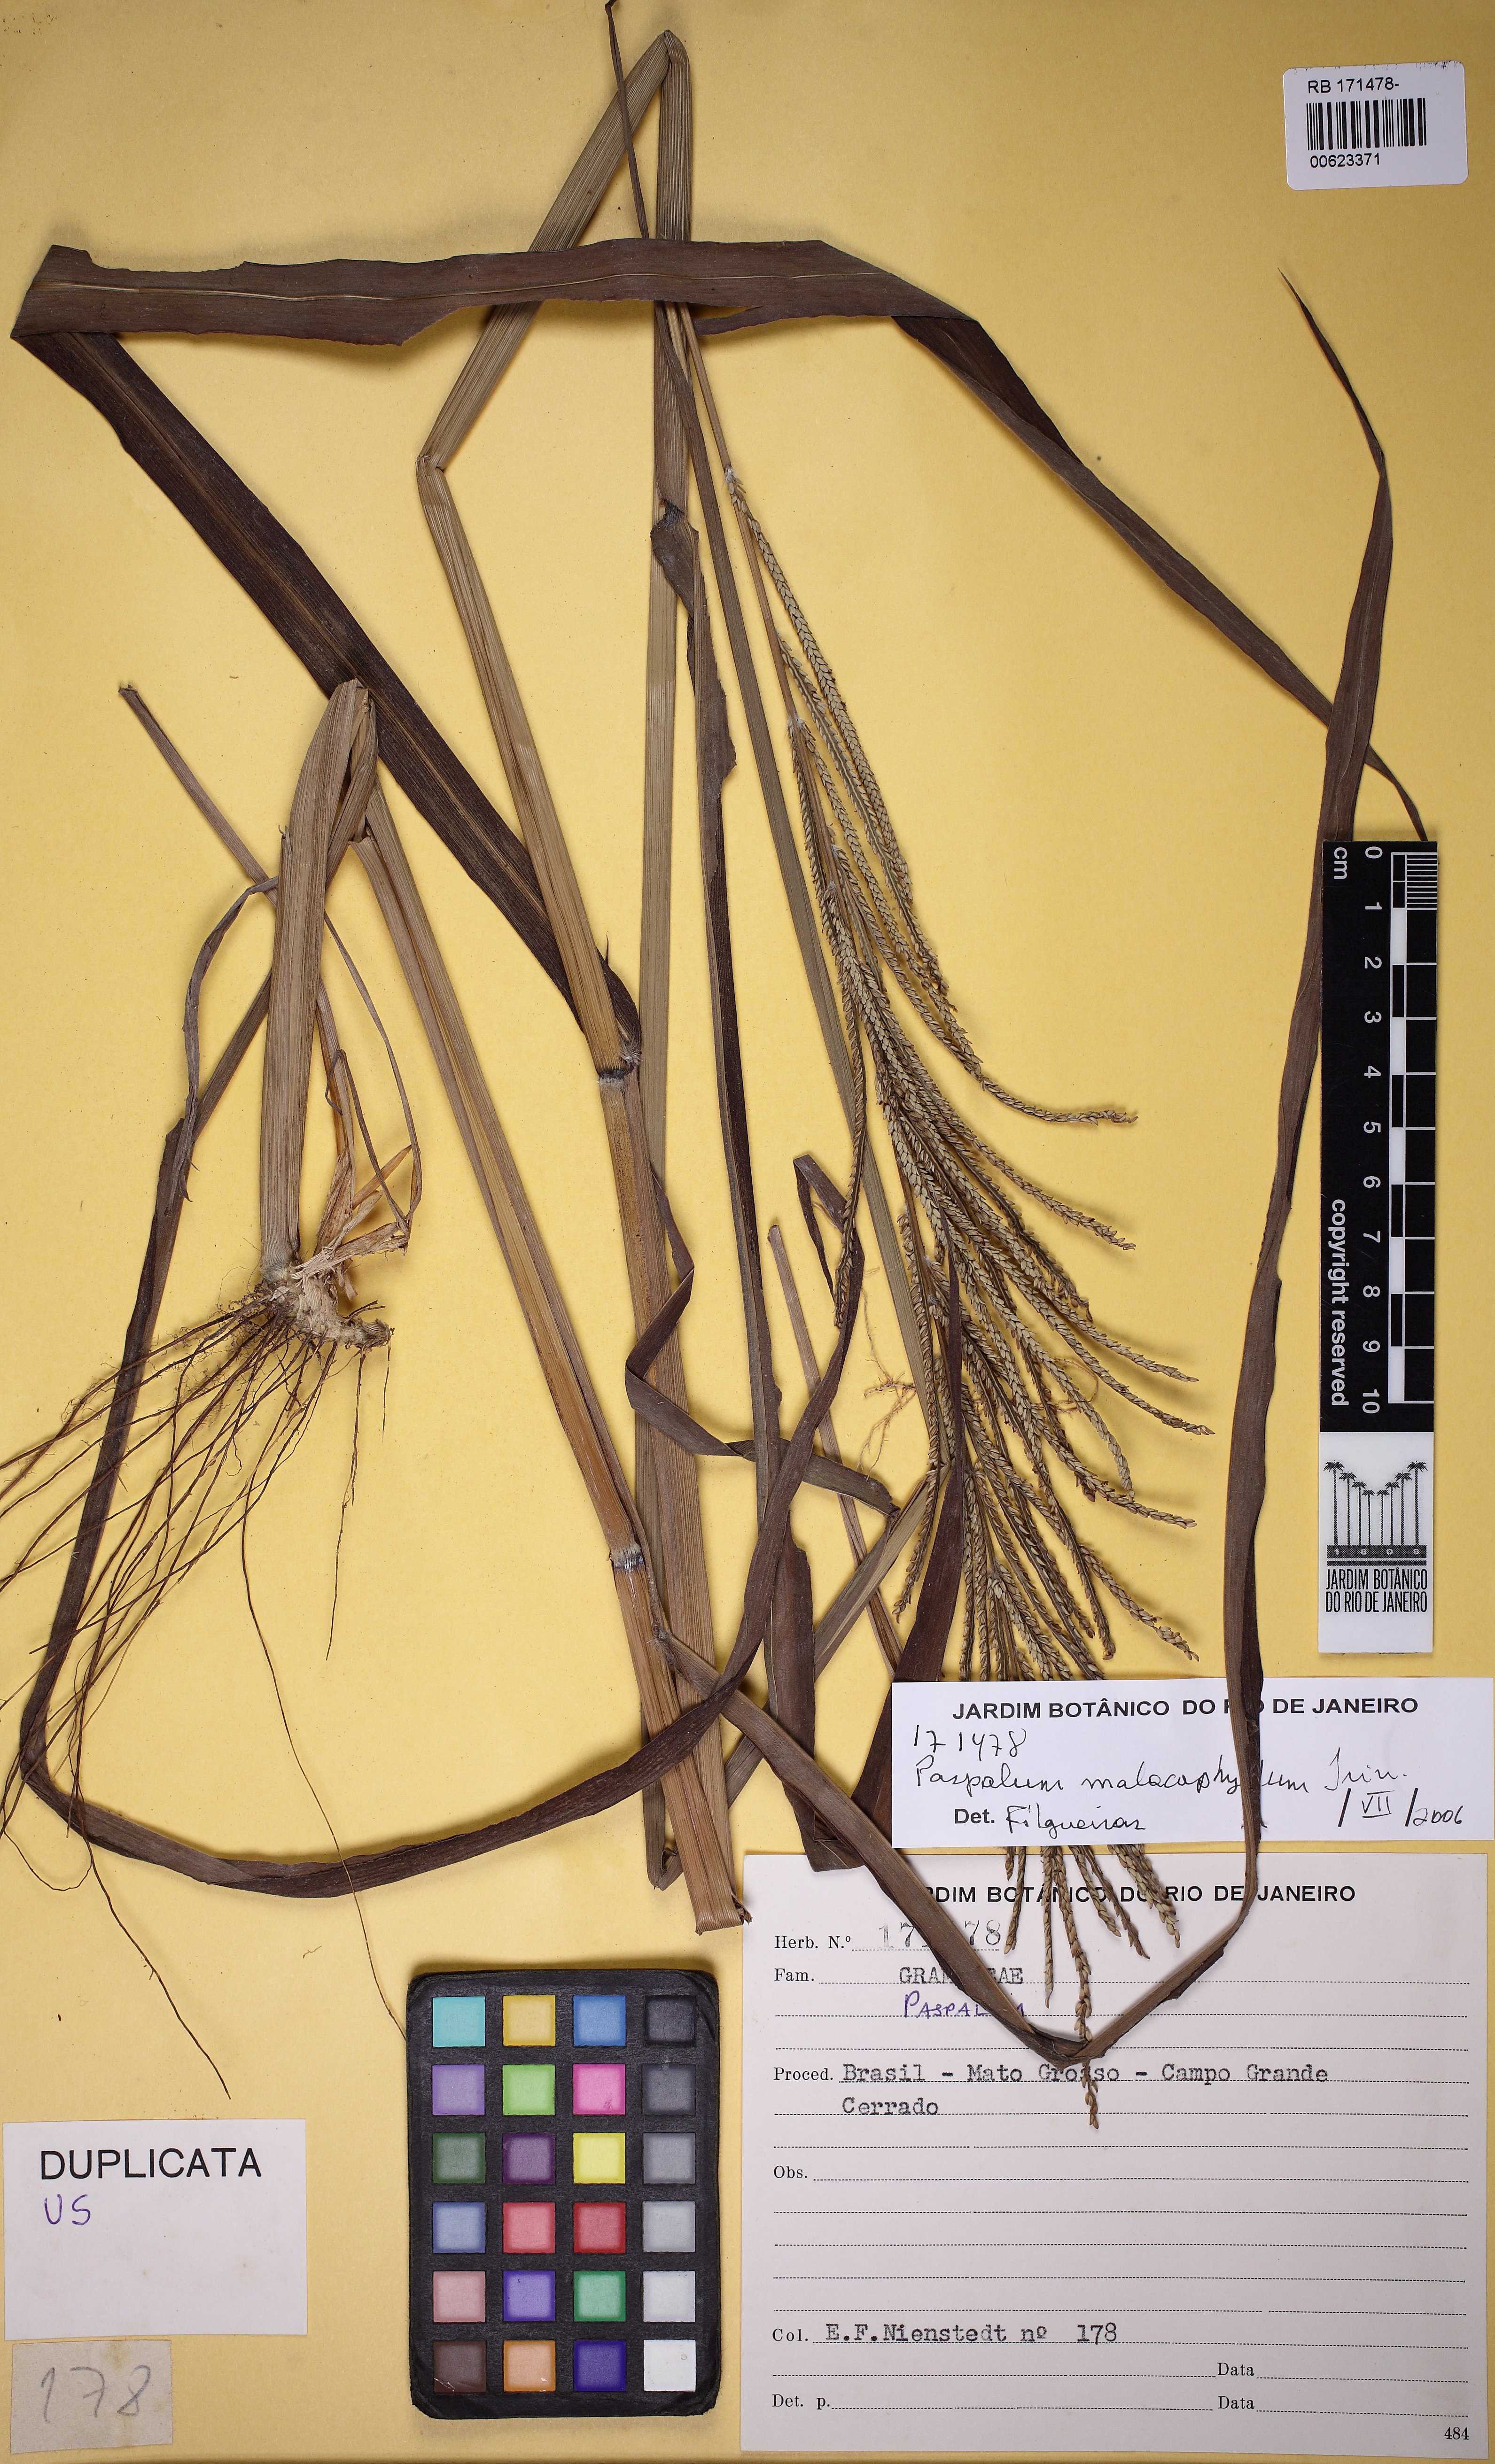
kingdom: Plantae
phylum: Tracheophyta
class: Liliopsida
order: Poales
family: Poaceae
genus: Paspalum
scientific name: Paspalum malacophyllum
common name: Ribbed paspalum
